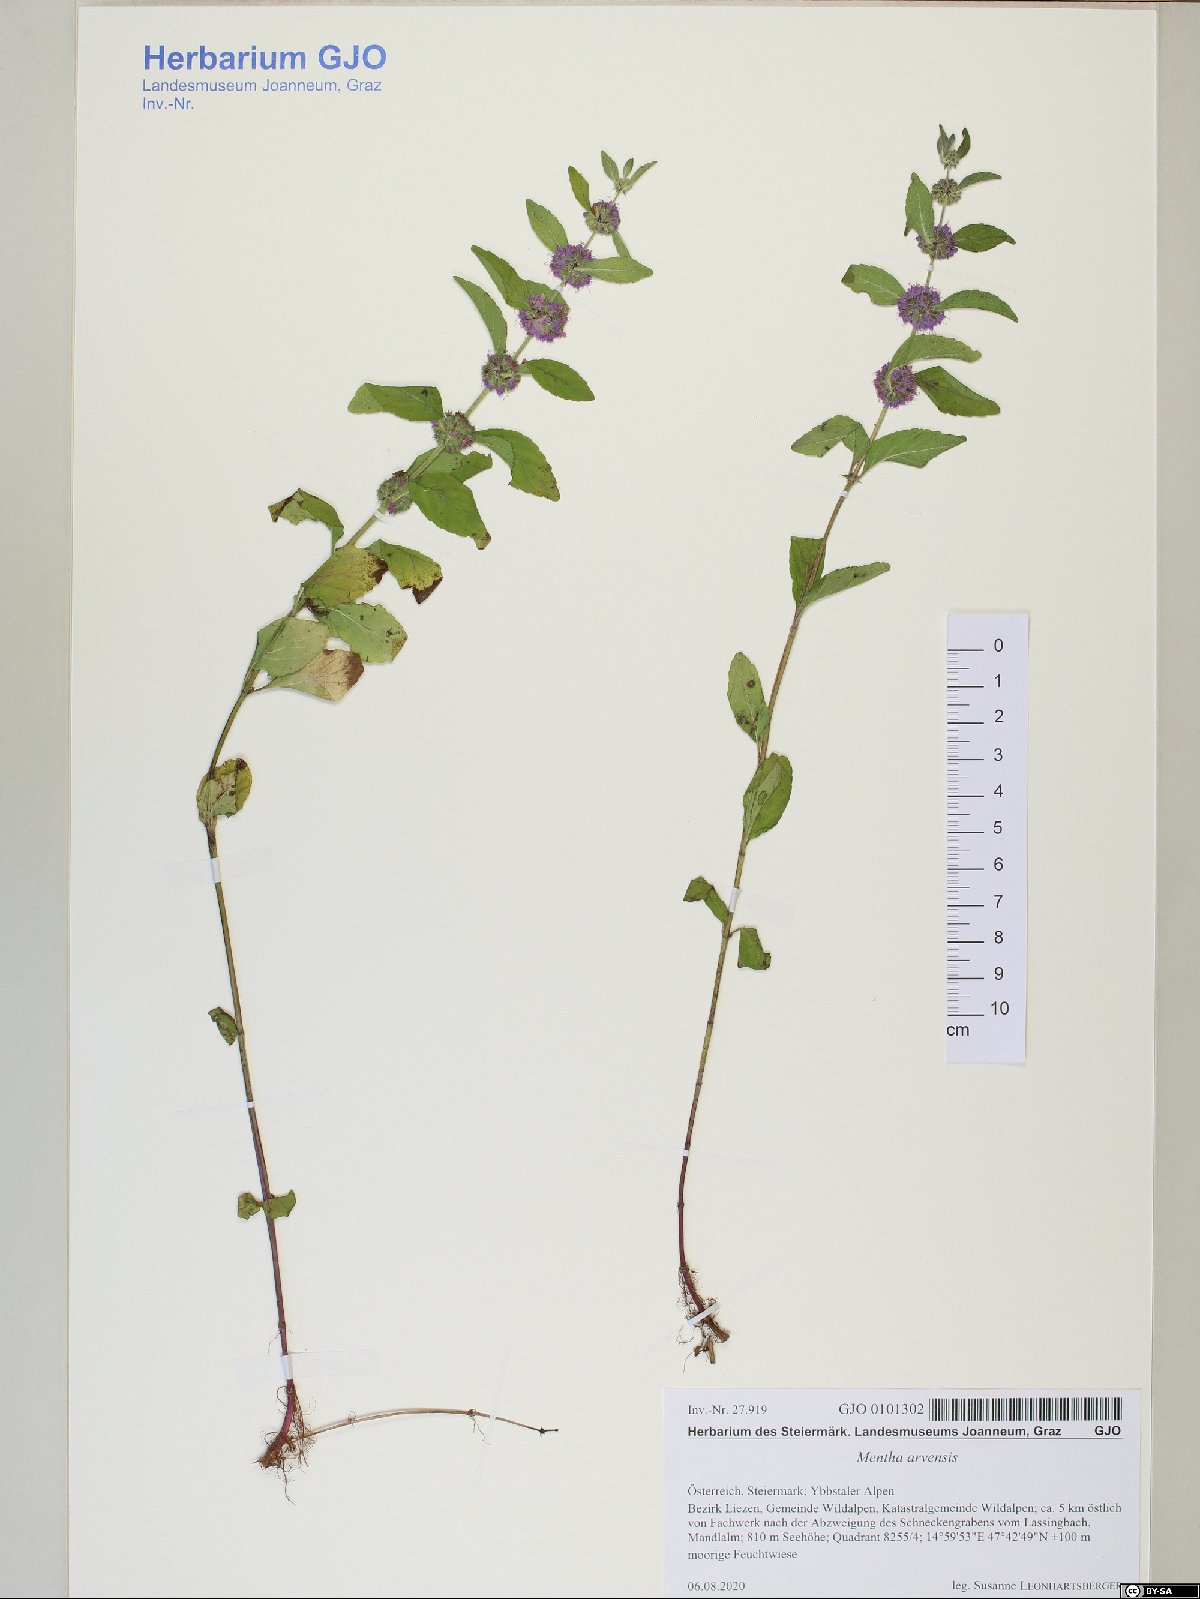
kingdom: Plantae
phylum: Tracheophyta
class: Magnoliopsida
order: Lamiales
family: Lamiaceae
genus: Mentha
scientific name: Mentha arvensis
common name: Corn mint
